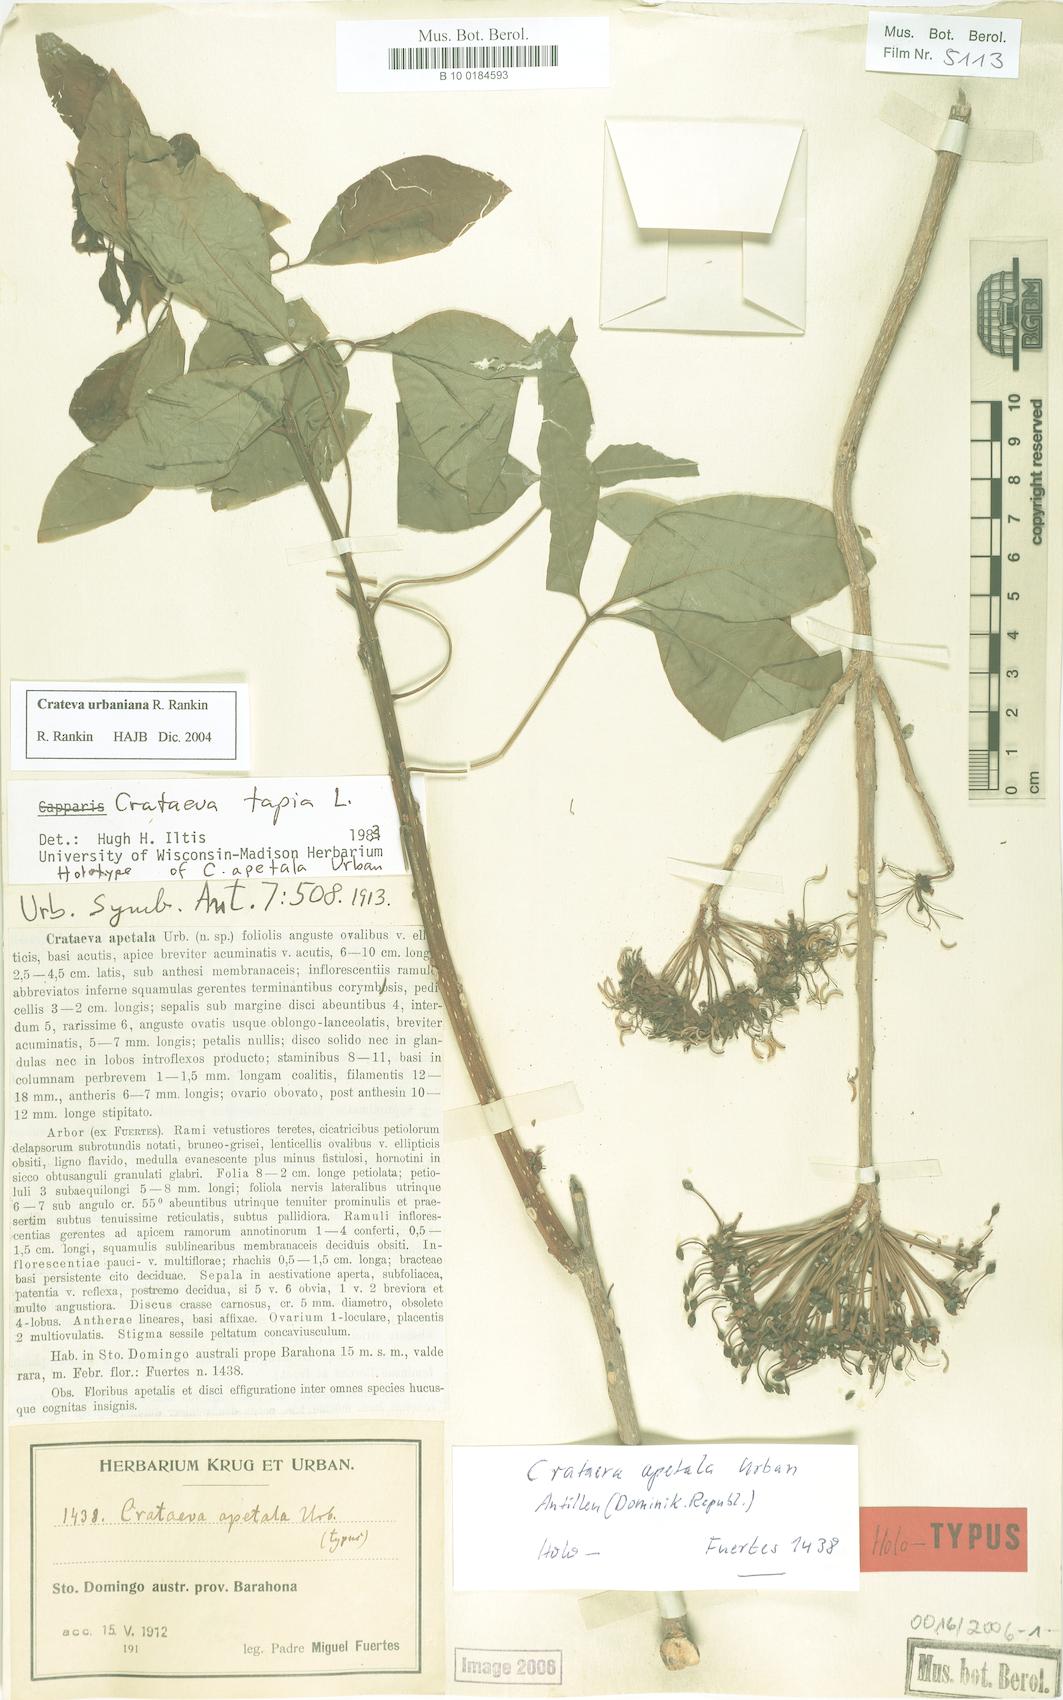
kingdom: Plantae
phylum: Tracheophyta
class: Magnoliopsida
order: Brassicales
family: Capparaceae
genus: Crateva
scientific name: Crateva urbaniana
